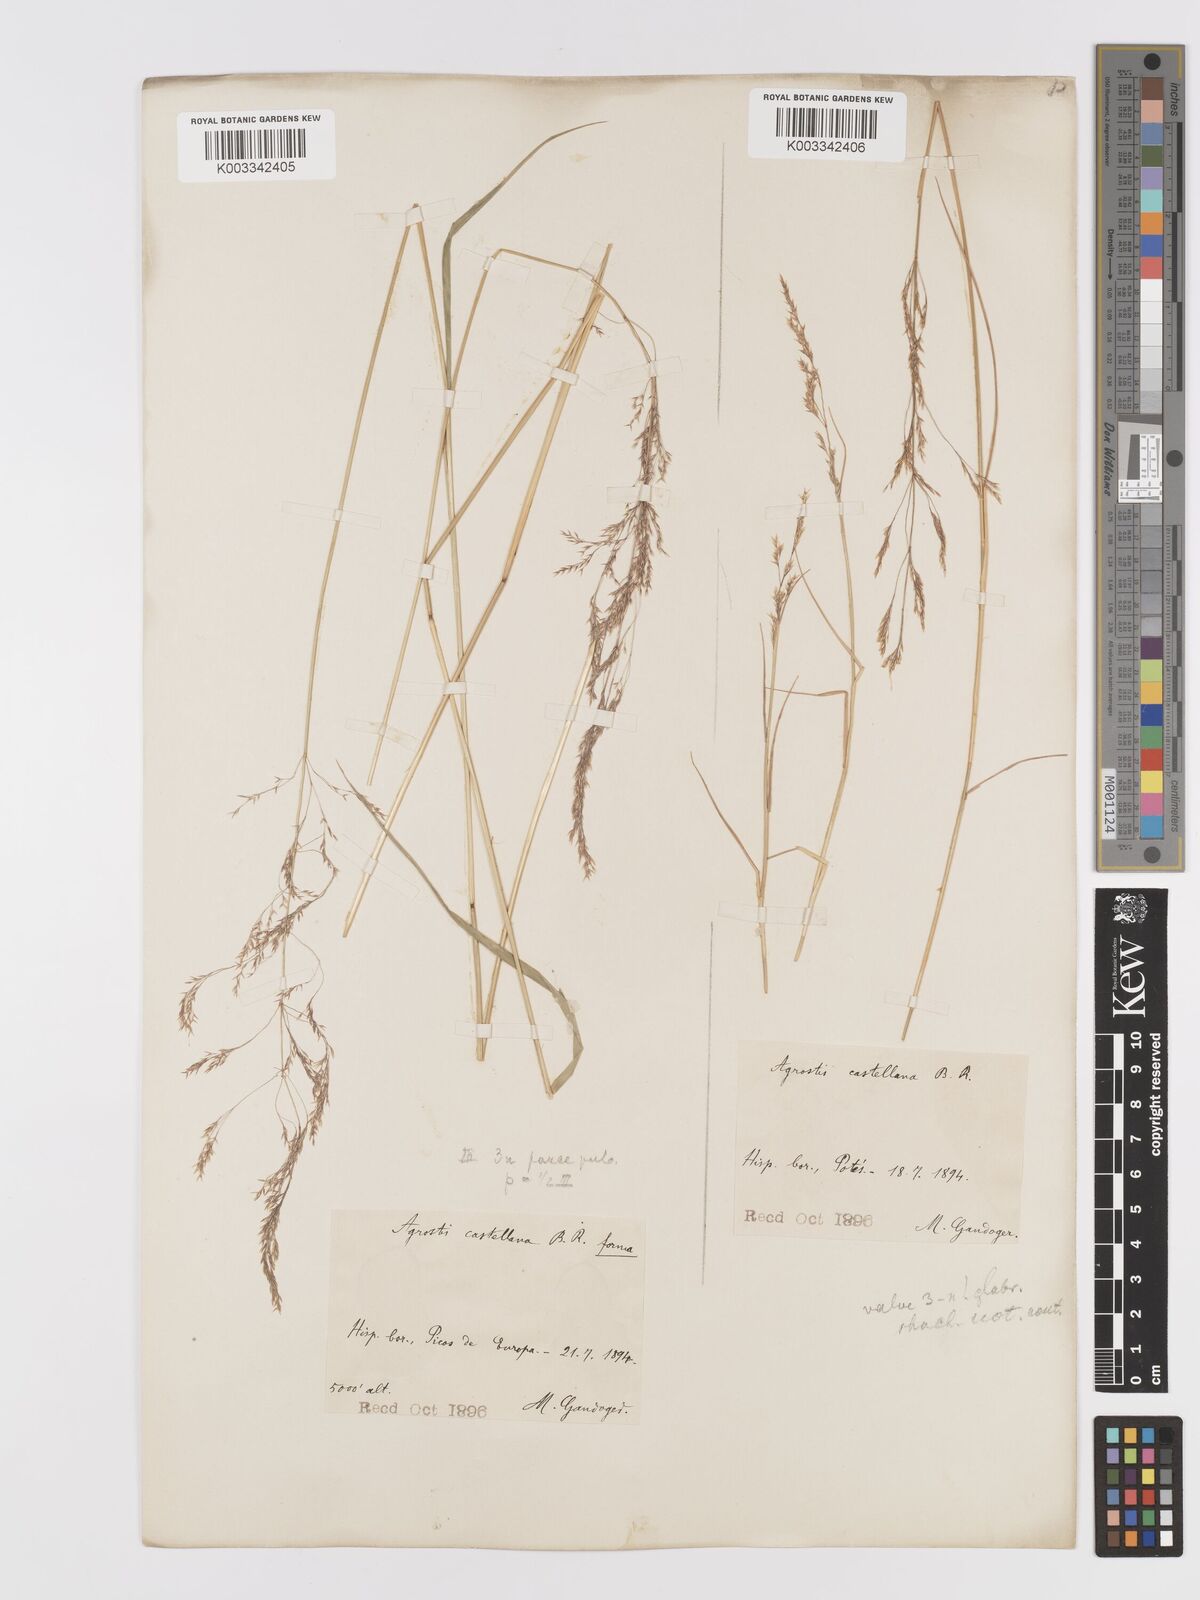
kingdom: Plantae
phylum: Tracheophyta
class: Liliopsida
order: Poales
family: Poaceae
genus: Agrostis
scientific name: Agrostis castellana
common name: Highland bent
